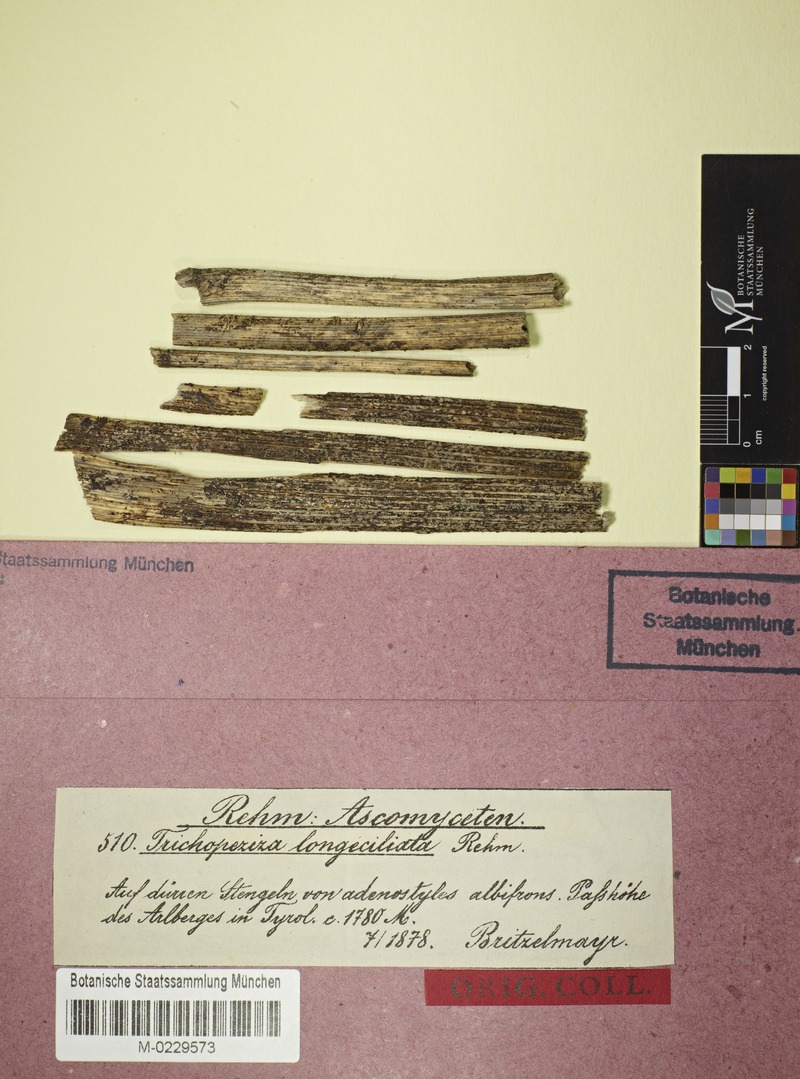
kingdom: Fungi
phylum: Ascomycota
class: Leotiomycetes
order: Helotiales
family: Hyaloscyphaceae
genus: Urceolella
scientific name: Urceolella crispula
